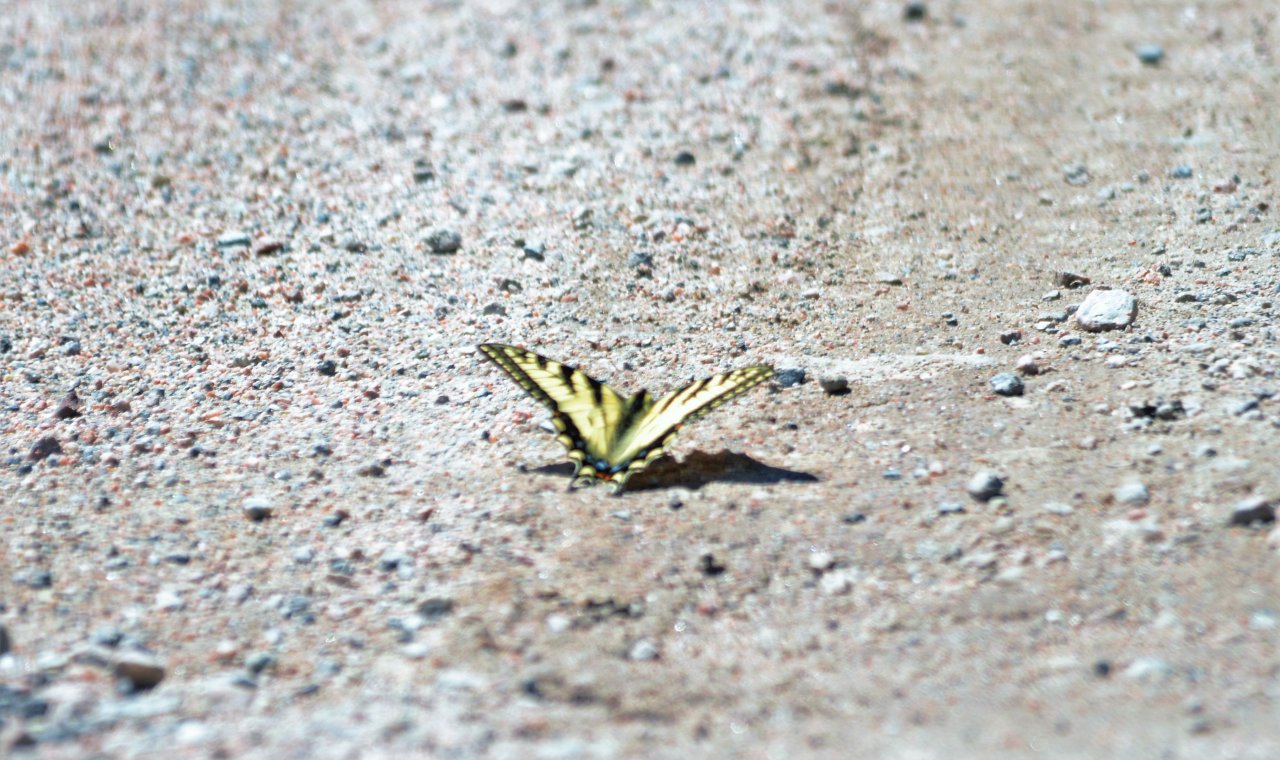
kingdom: Animalia
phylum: Arthropoda
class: Insecta
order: Lepidoptera
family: Papilionidae
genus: Pterourus
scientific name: Pterourus canadensis
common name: Canadian Tiger Swallowtail
